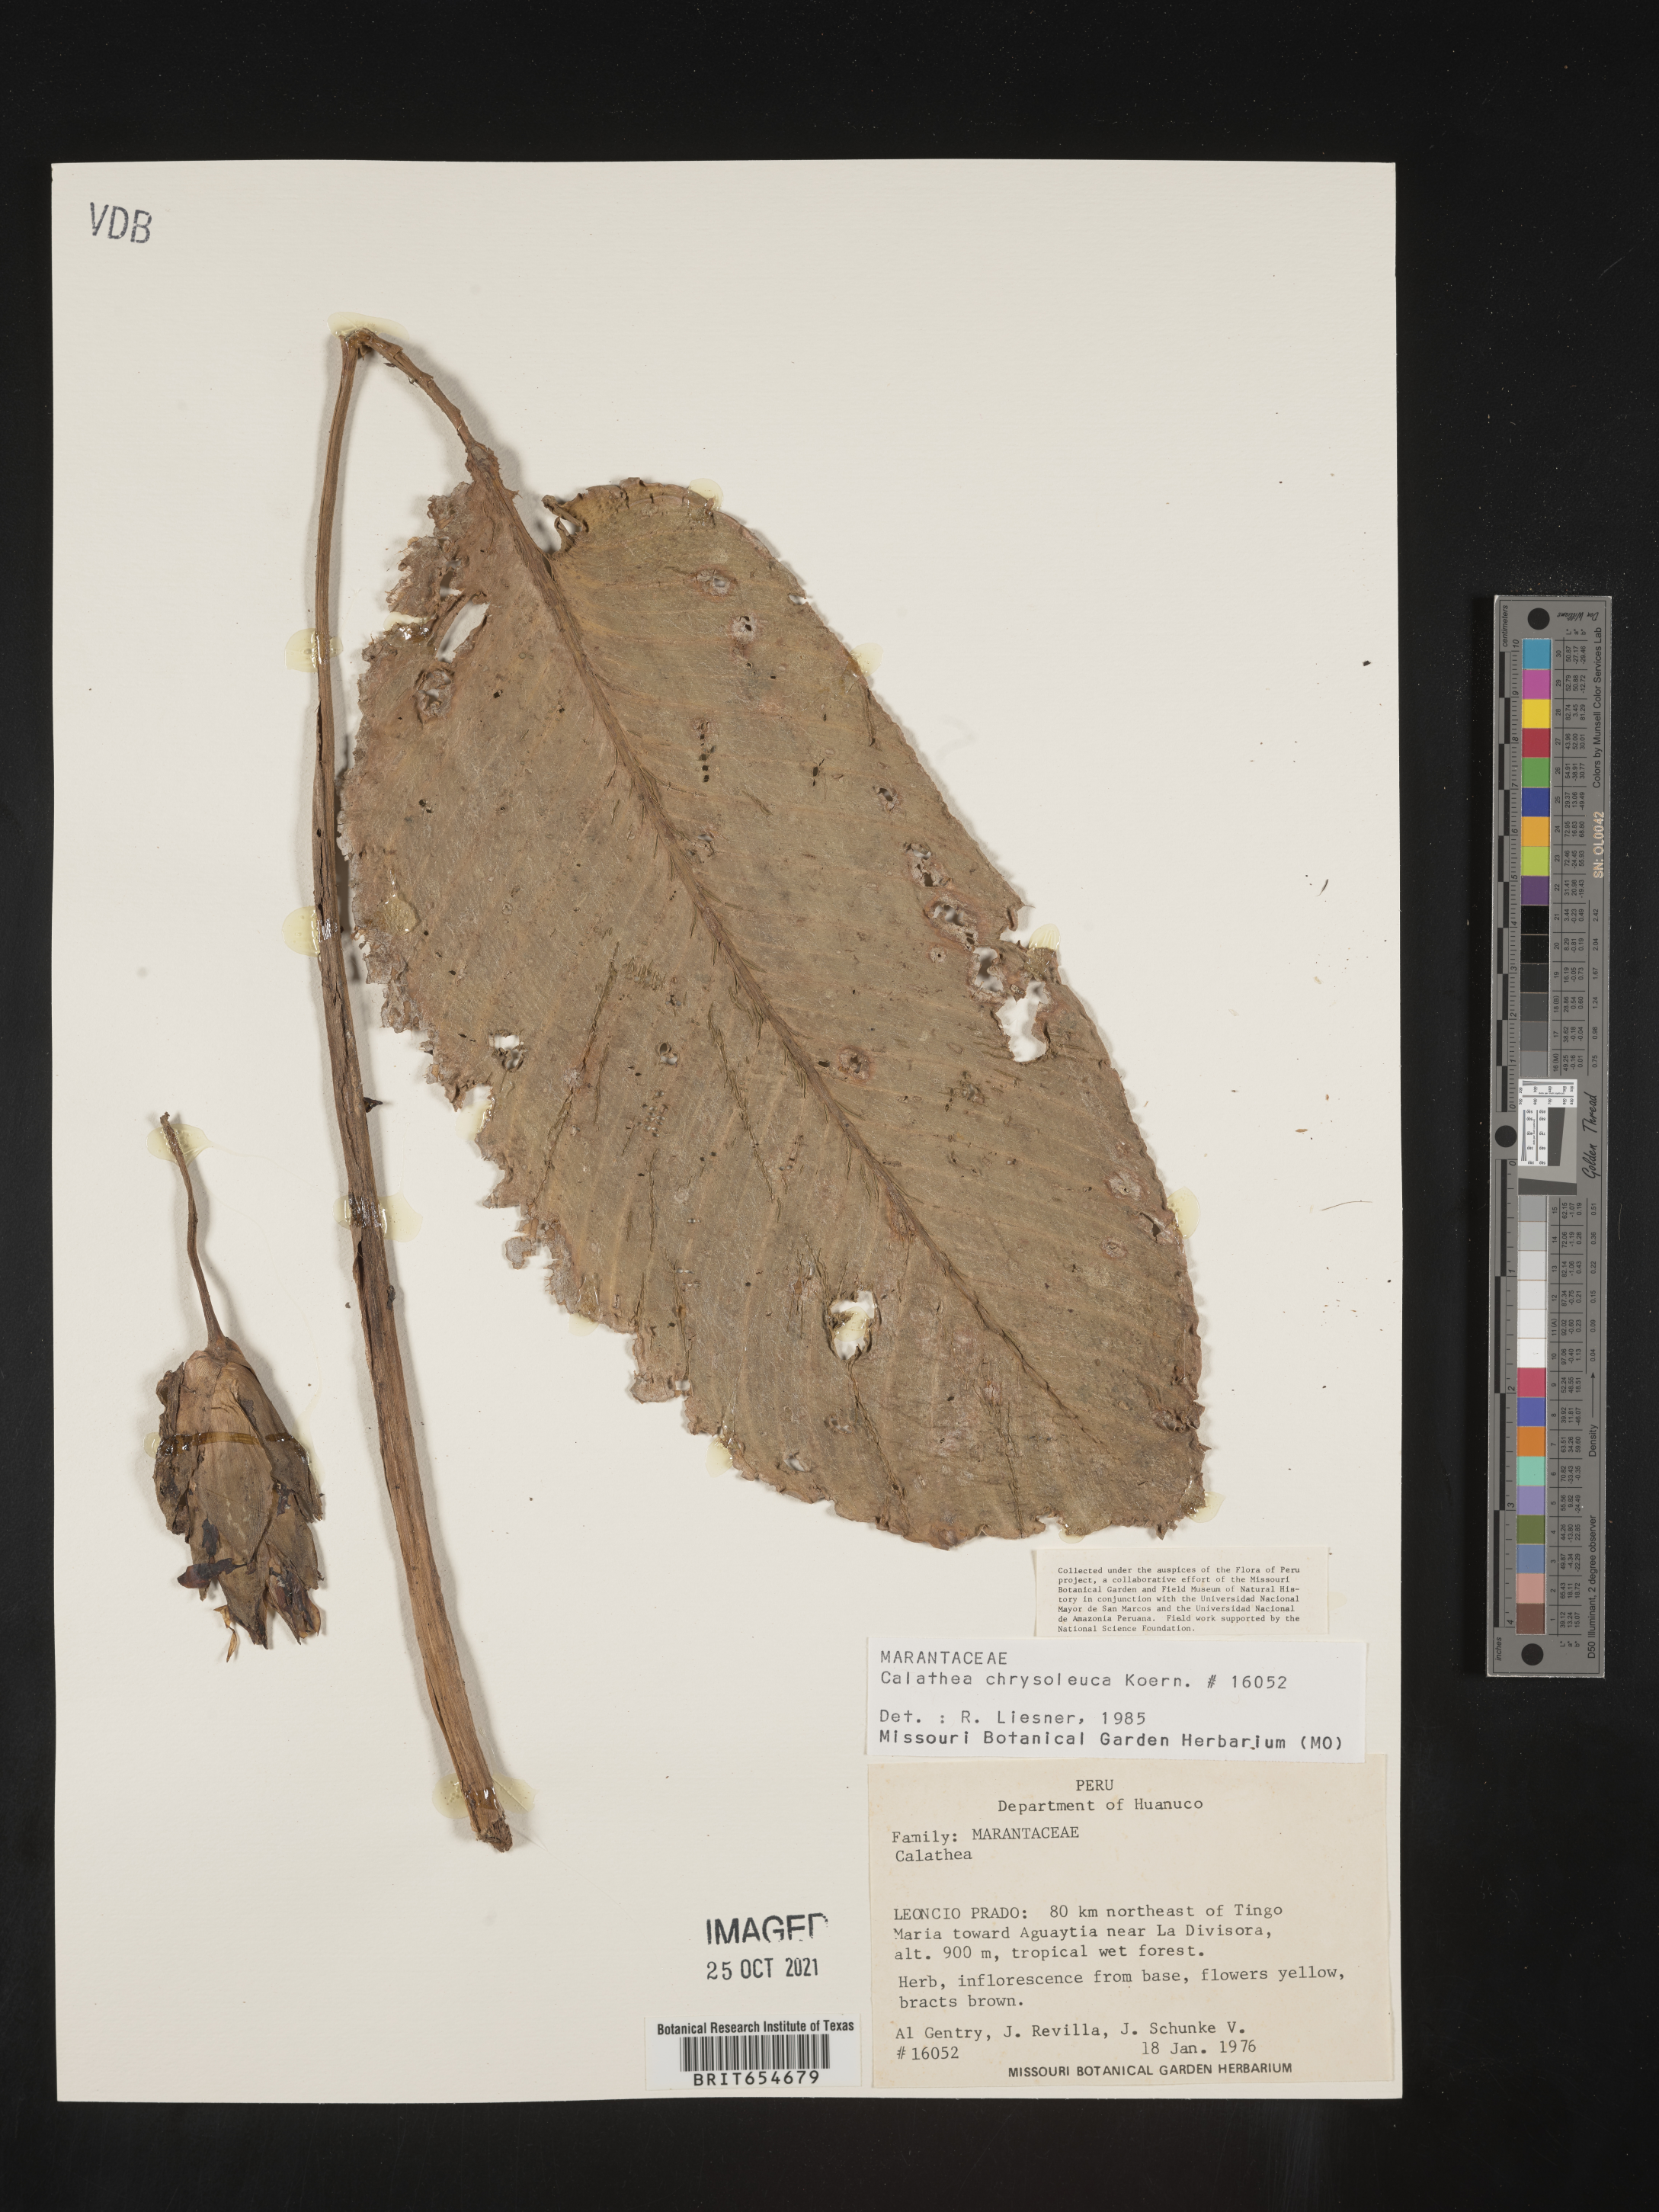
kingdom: Plantae
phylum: Tracheophyta
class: Liliopsida
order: Zingiberales
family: Marantaceae
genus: Calathea
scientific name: Calathea
